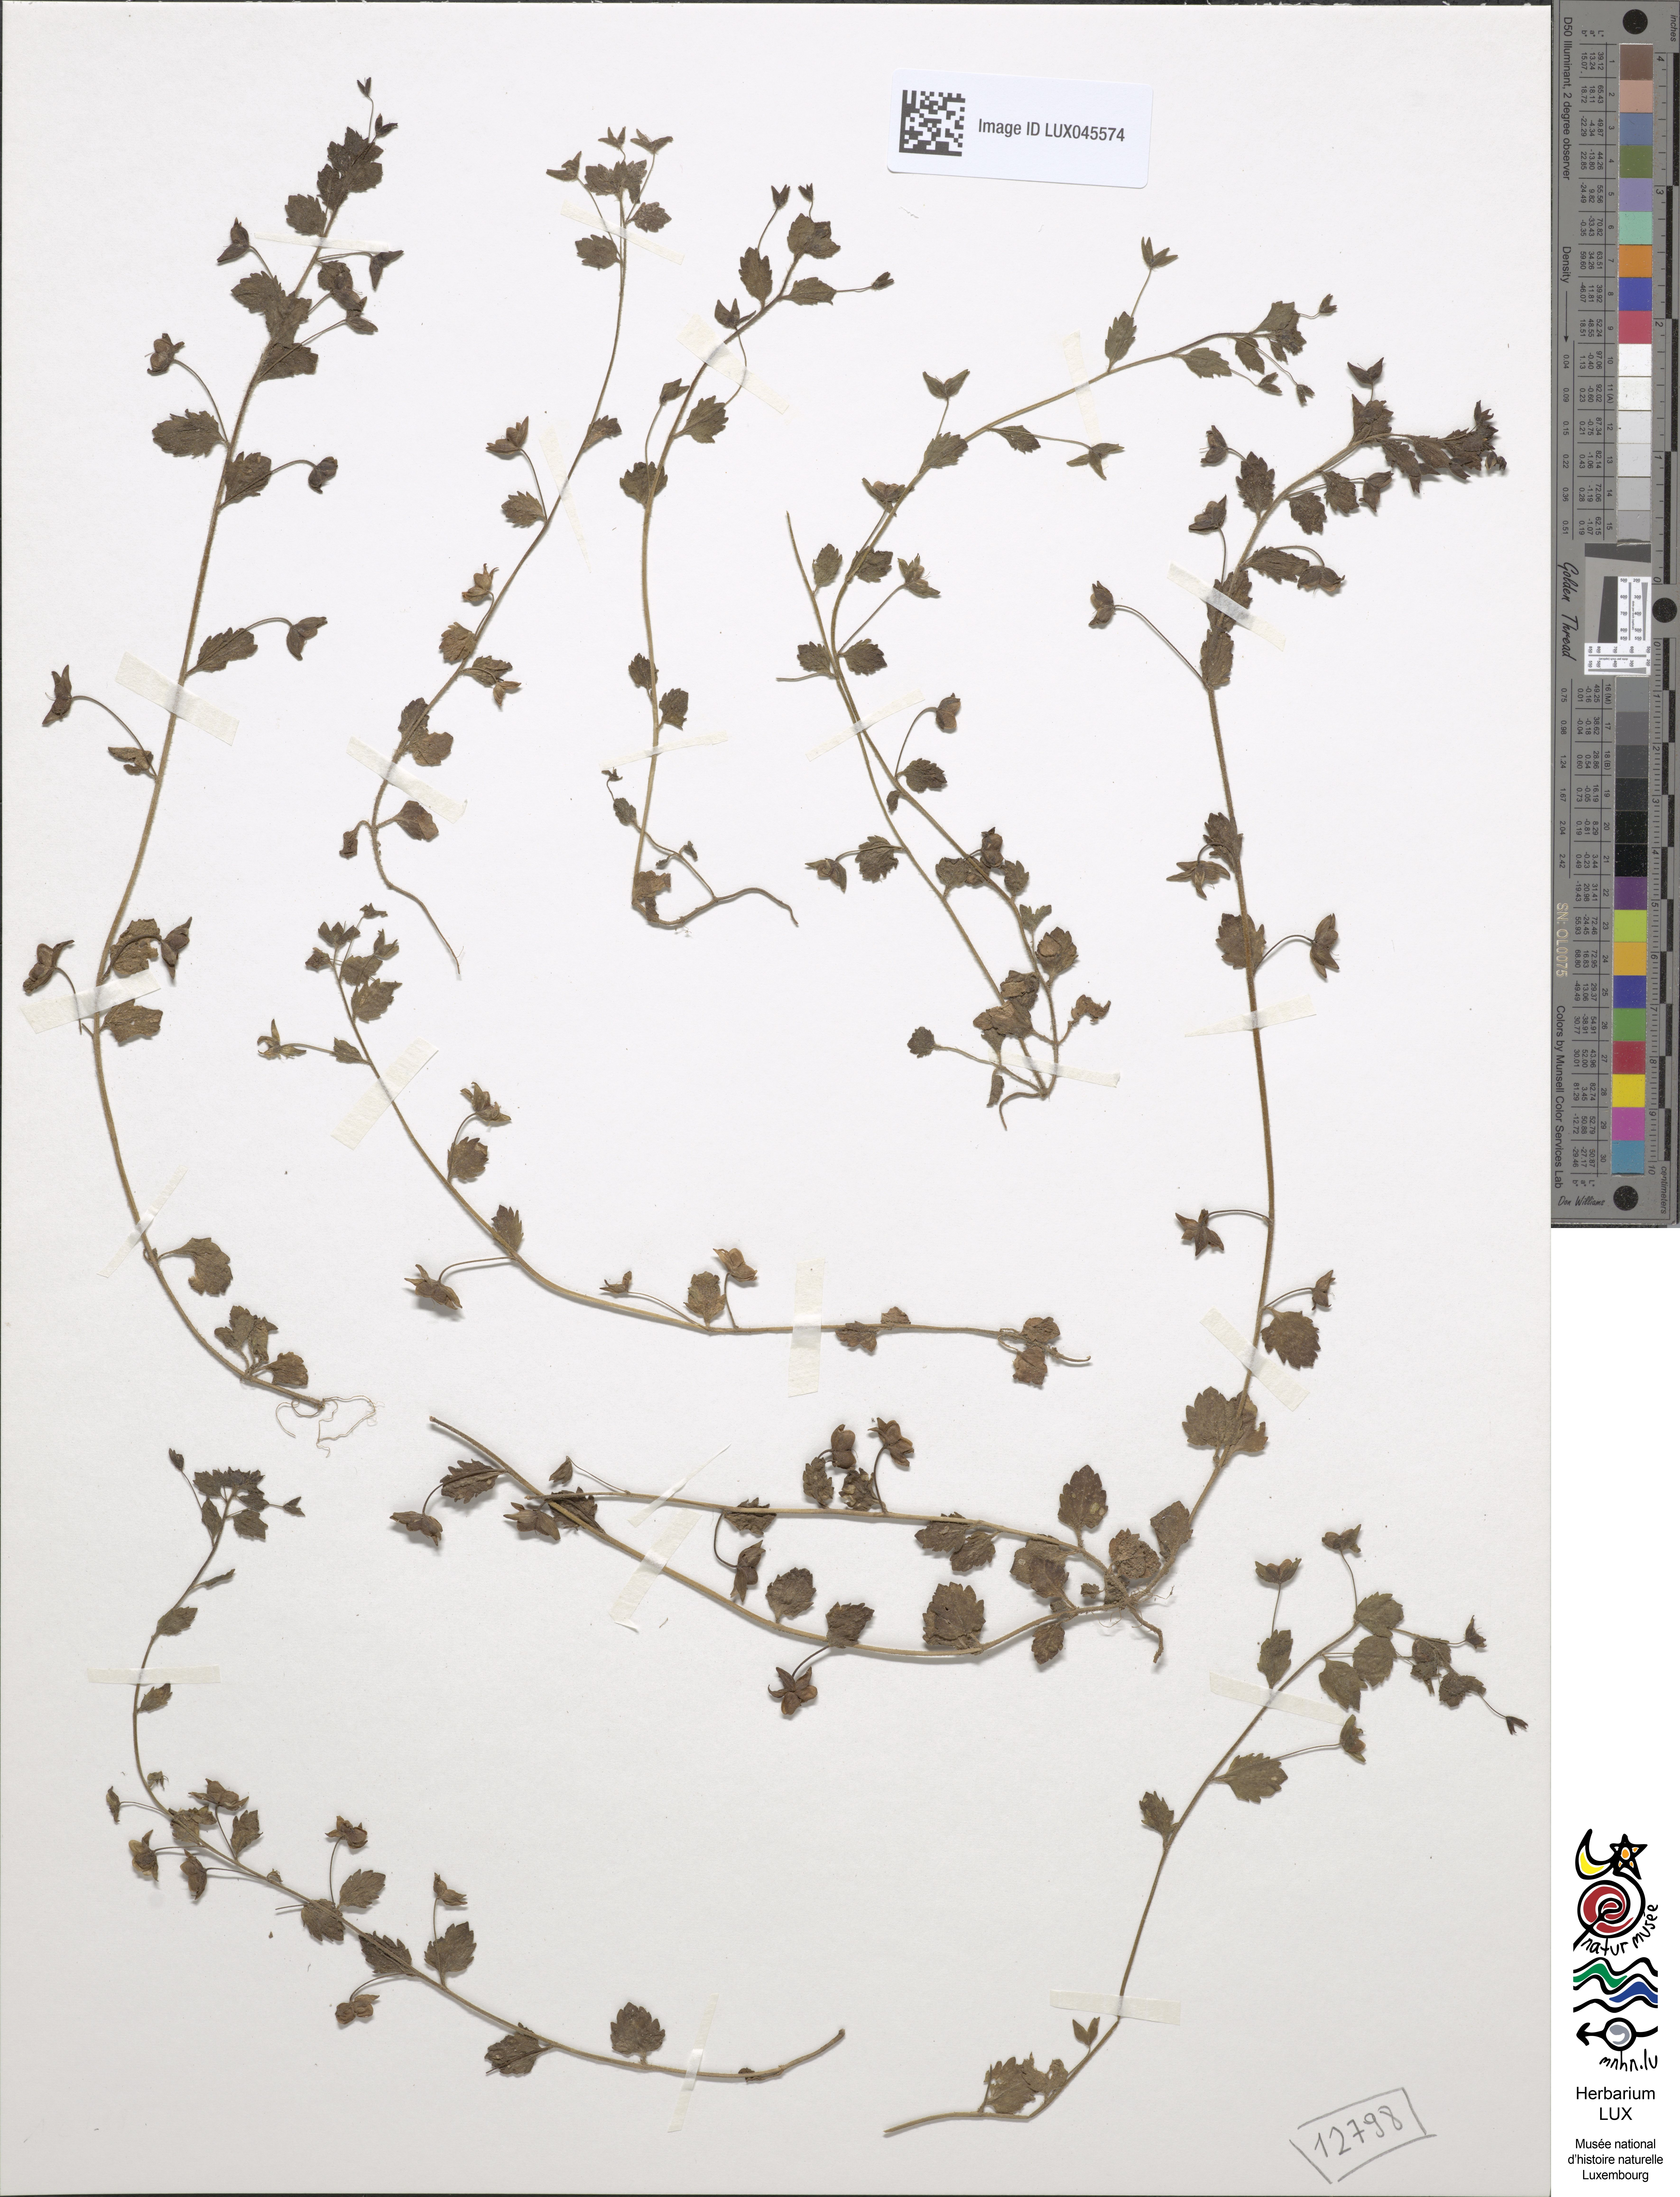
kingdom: Plantae
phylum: Tracheophyta
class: Magnoliopsida
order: Lamiales
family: Plantaginaceae
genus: Veronica
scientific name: Veronica persica
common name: Common field-speedwell
